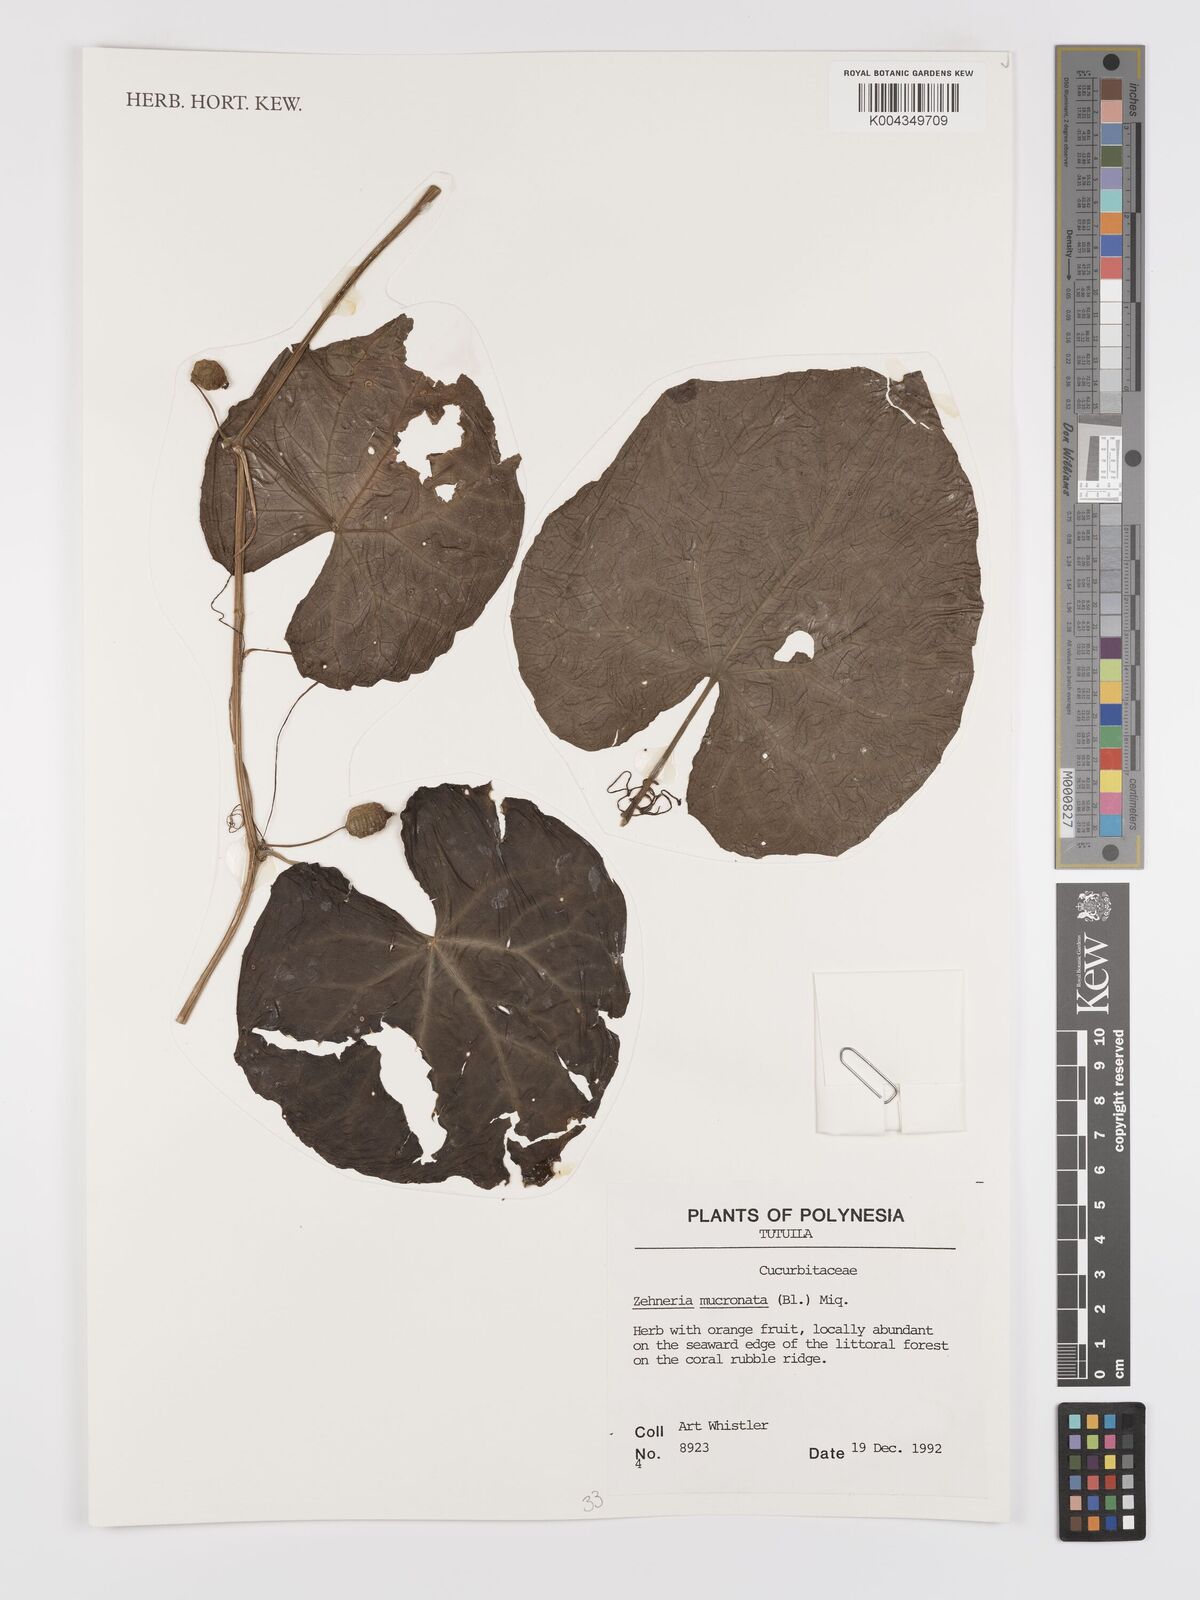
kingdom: Plantae
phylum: Tracheophyta
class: Magnoliopsida
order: Cucurbitales
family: Cucurbitaceae
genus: Zehneria
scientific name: Zehneria mucronata
